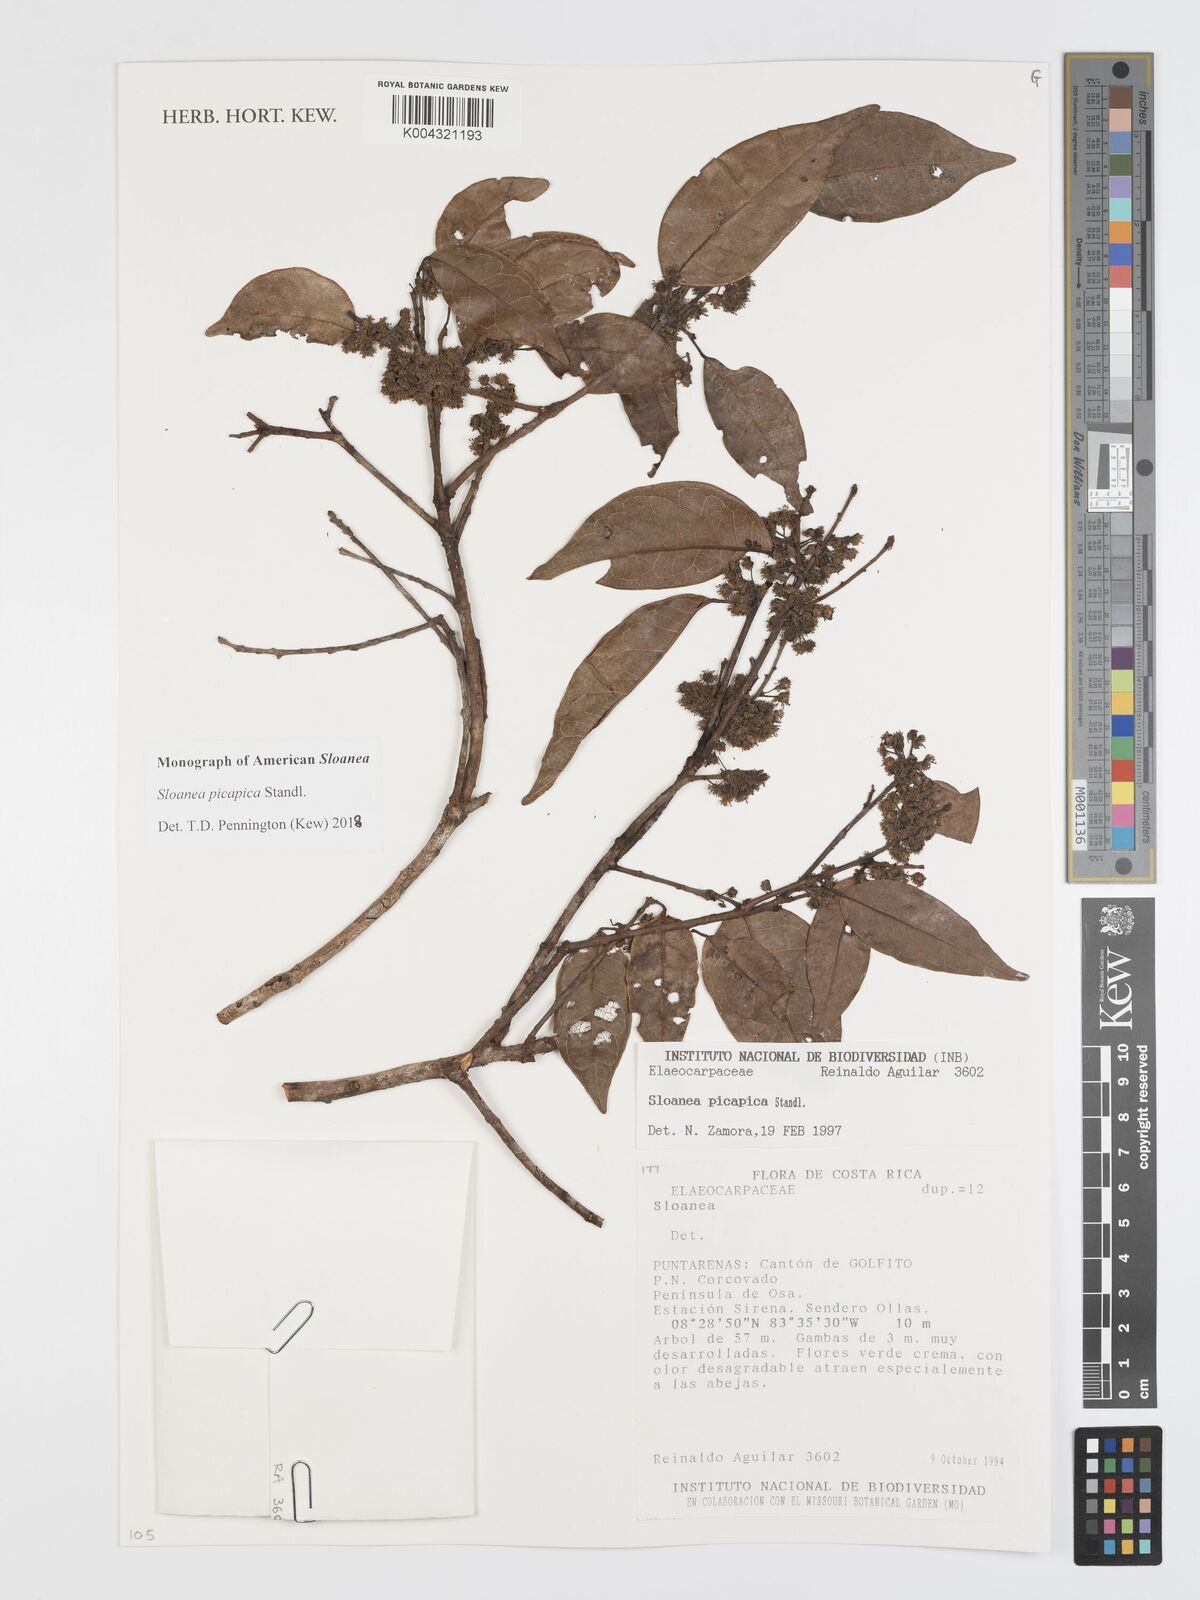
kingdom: Plantae
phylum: Tracheophyta
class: Magnoliopsida
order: Oxalidales
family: Elaeocarpaceae
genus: Sloanea
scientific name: Sloanea picapica
